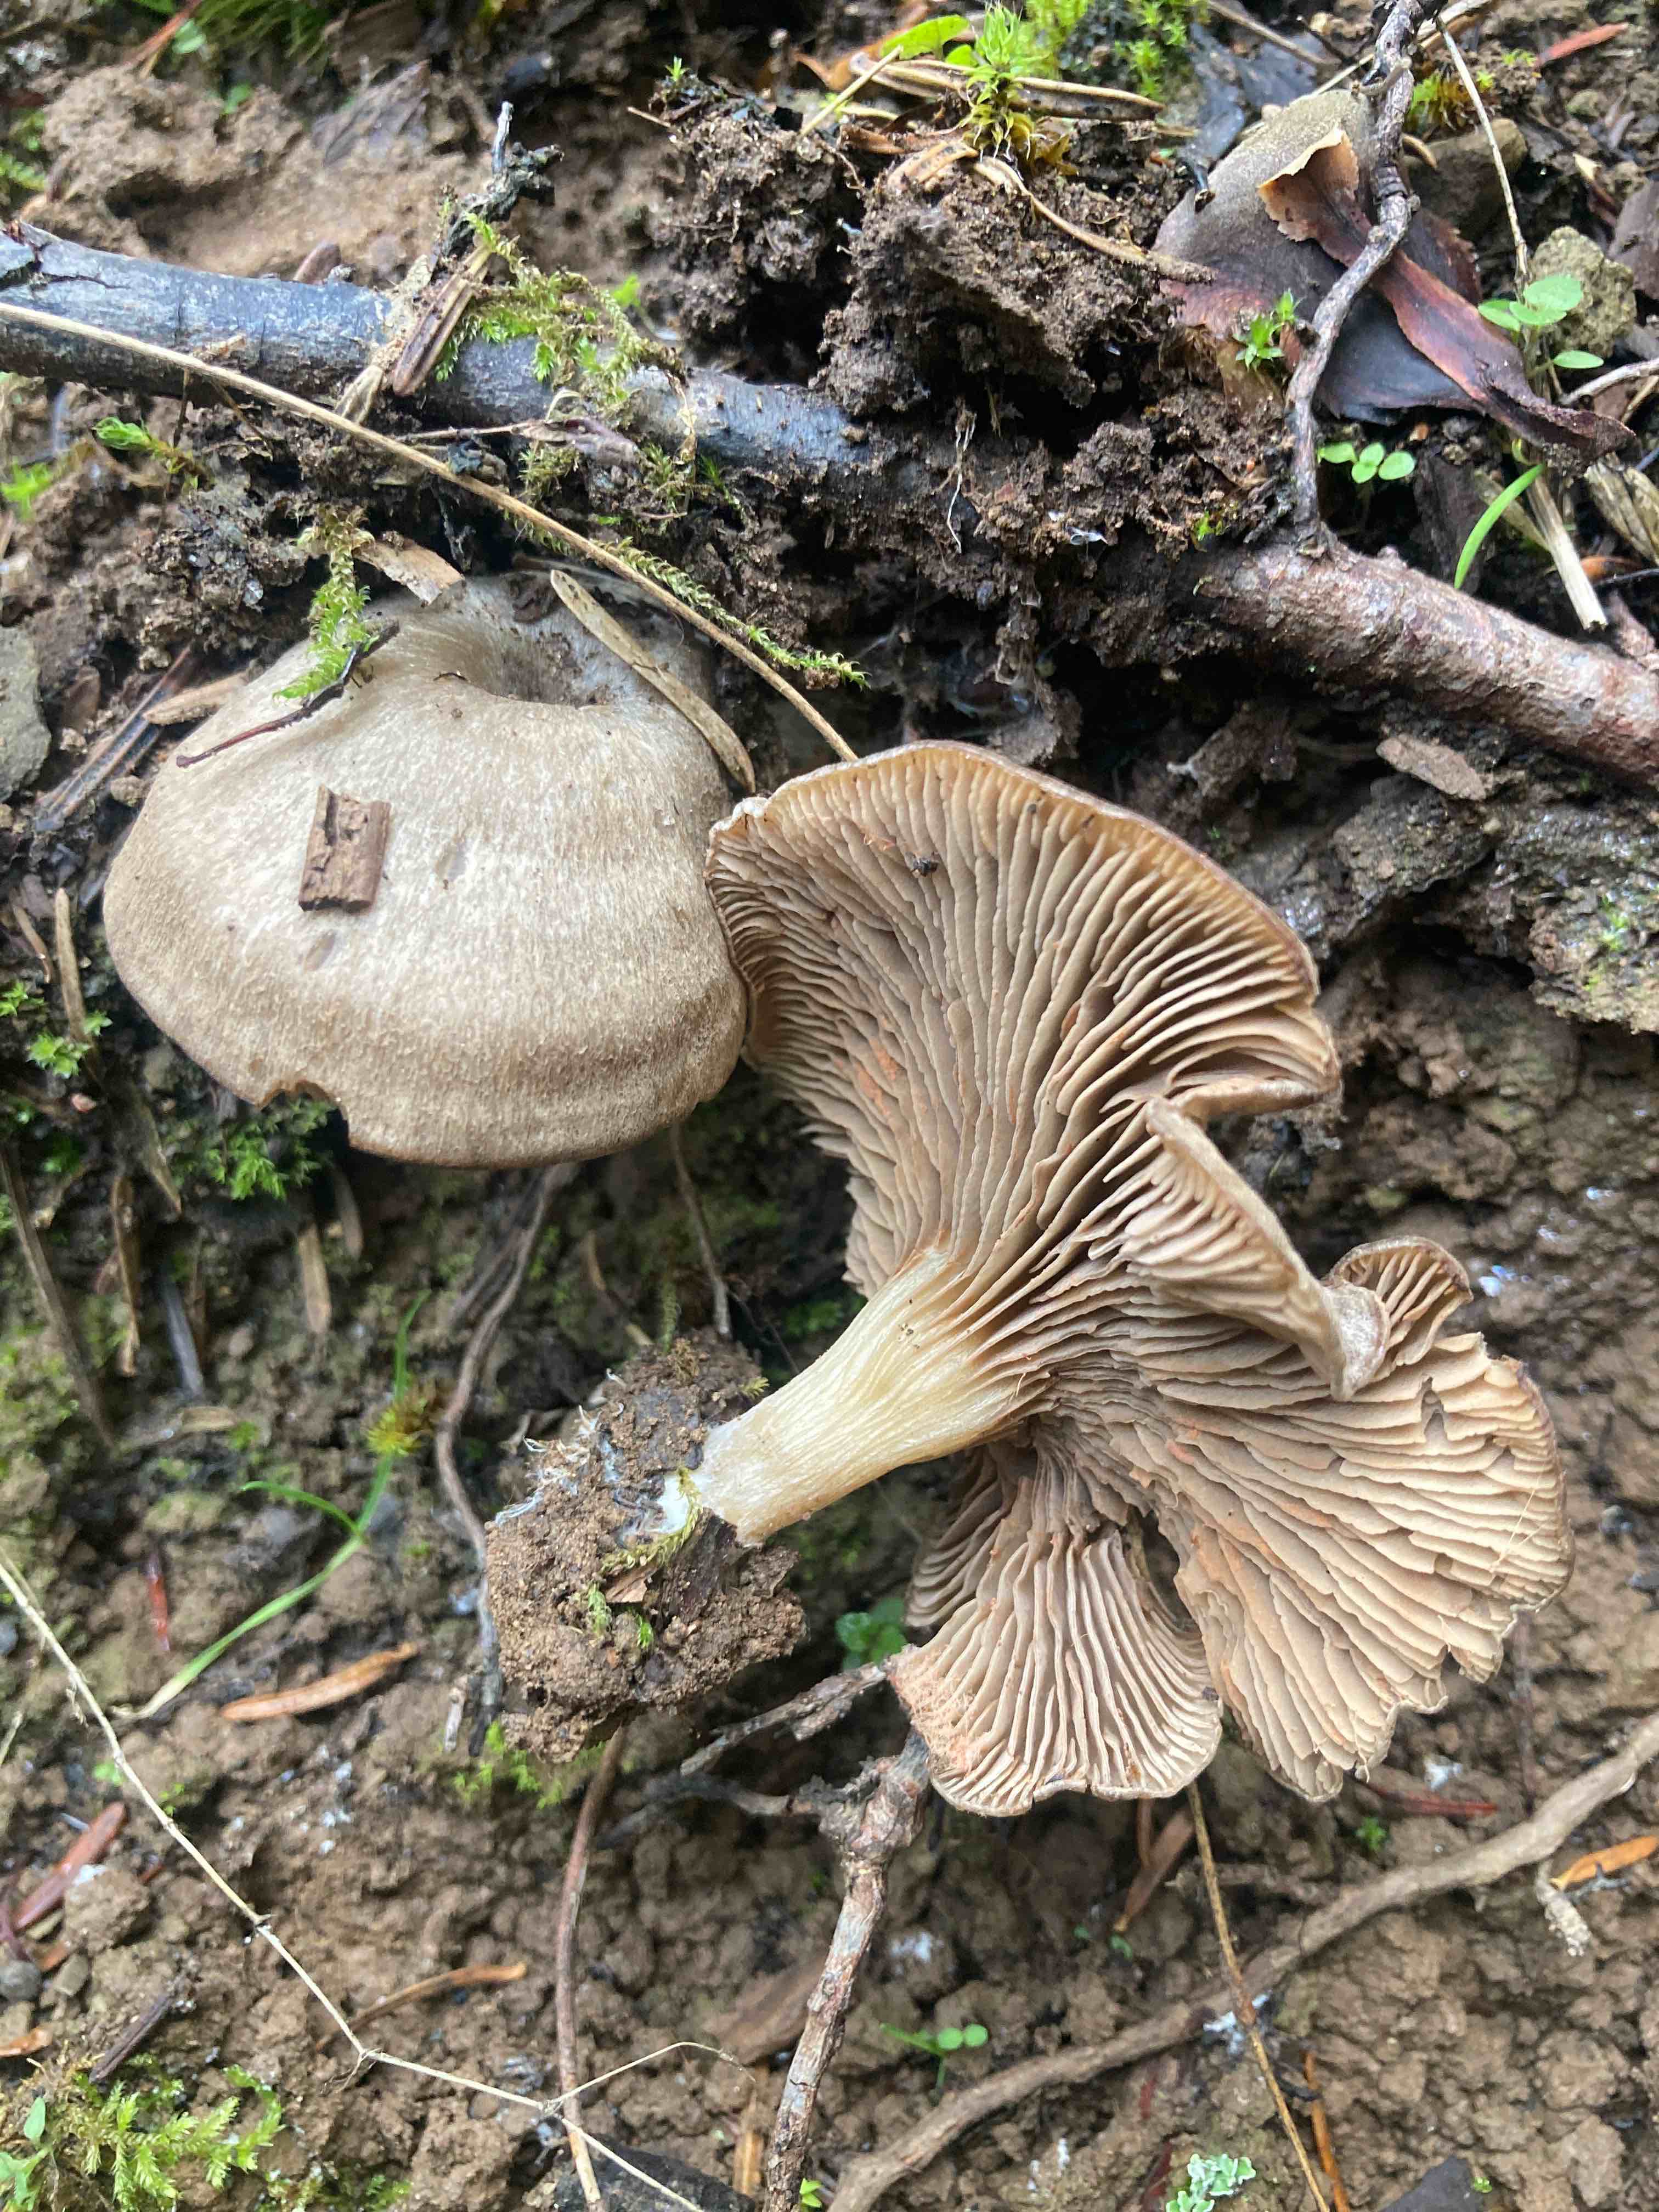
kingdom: Fungi
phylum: Basidiomycota
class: Agaricomycetes
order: Agaricales
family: Entolomataceae
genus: Entoloma
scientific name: Entoloma undatum
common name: bæltet rødblad
